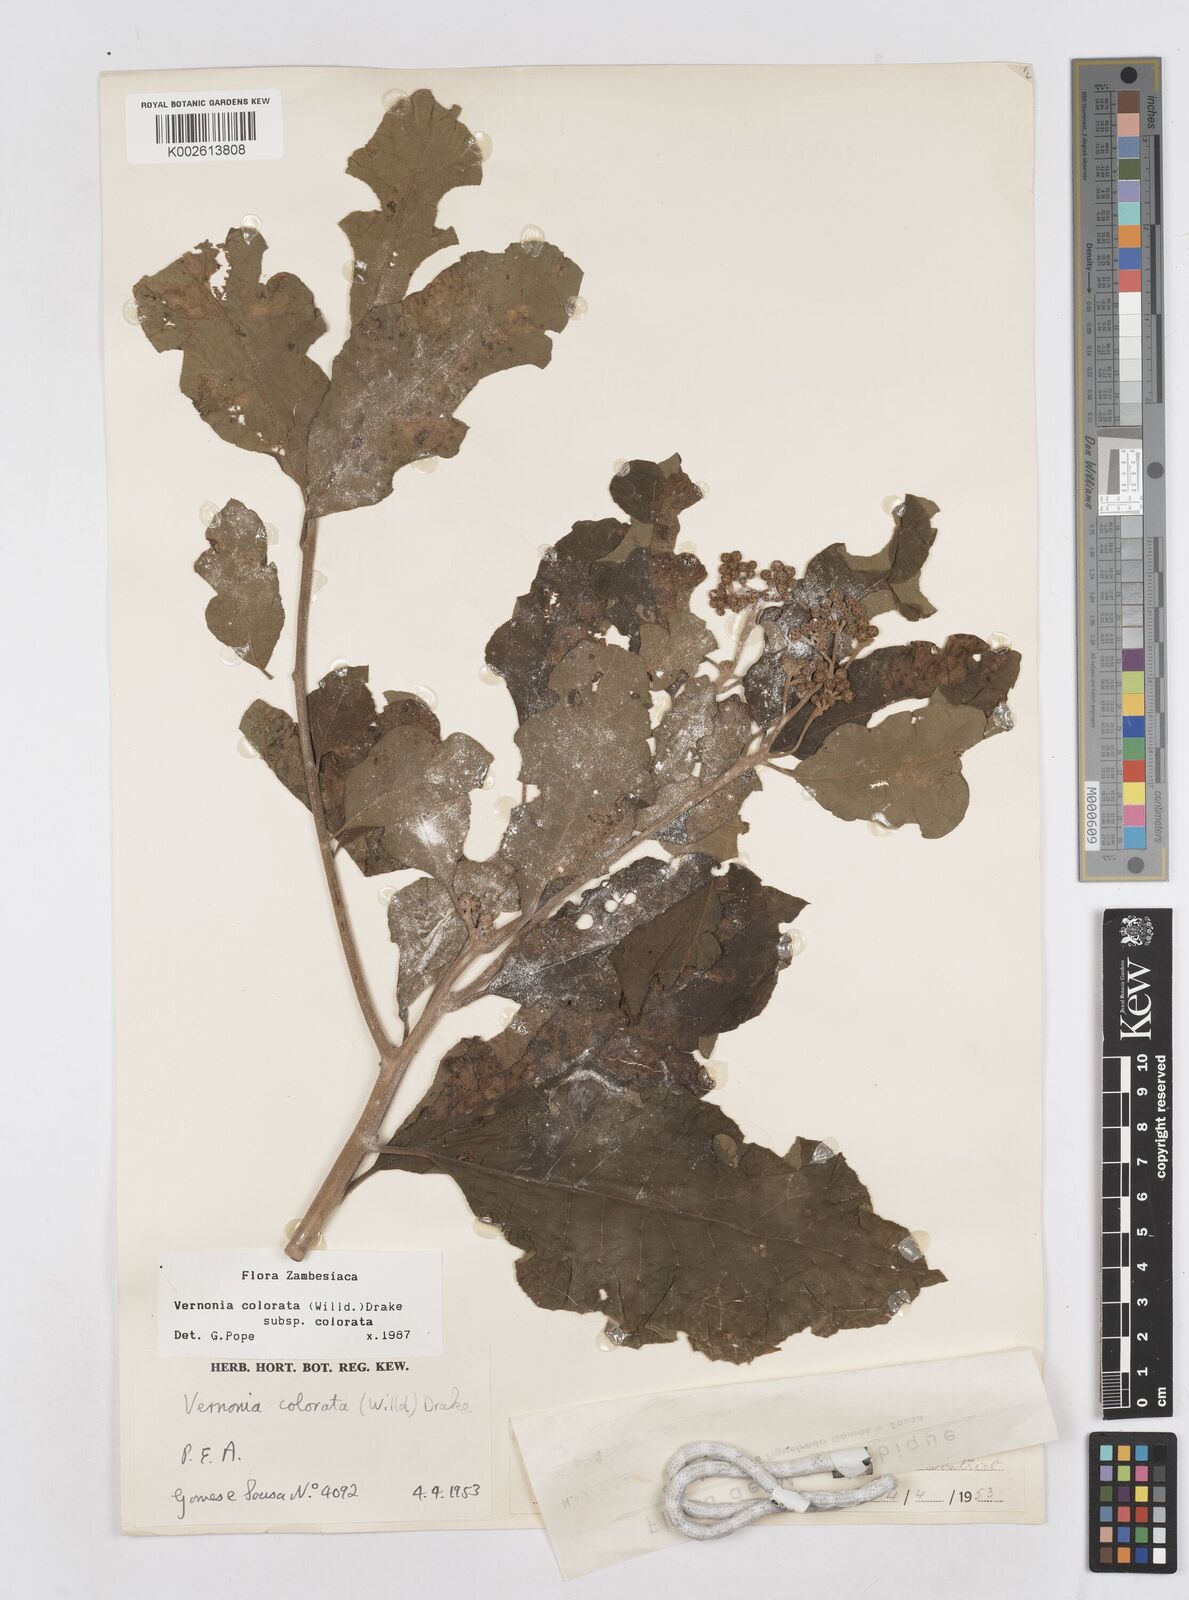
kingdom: Plantae
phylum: Tracheophyta
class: Magnoliopsida
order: Asterales
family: Asteraceae
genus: Vernonia
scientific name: Vernonia colorata
